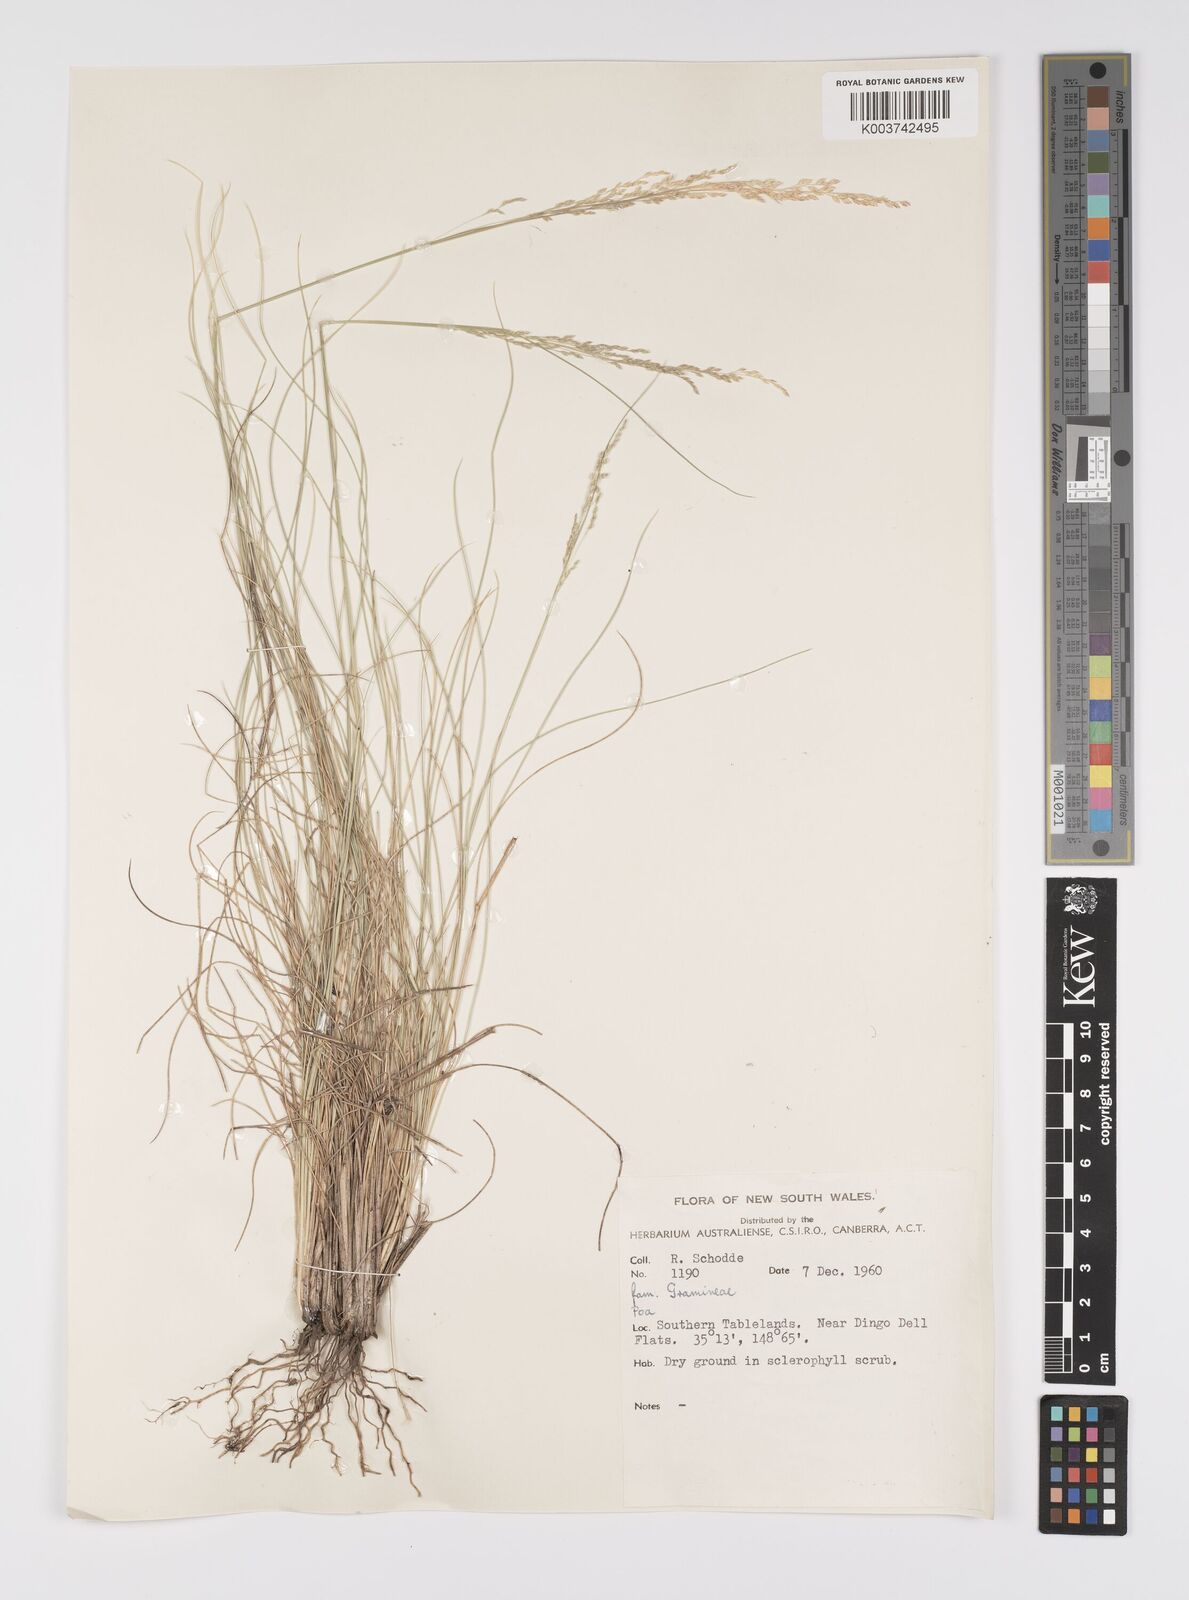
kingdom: Plantae
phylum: Tracheophyta
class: Liliopsida
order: Poales
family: Poaceae
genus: Poa
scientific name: Poa
